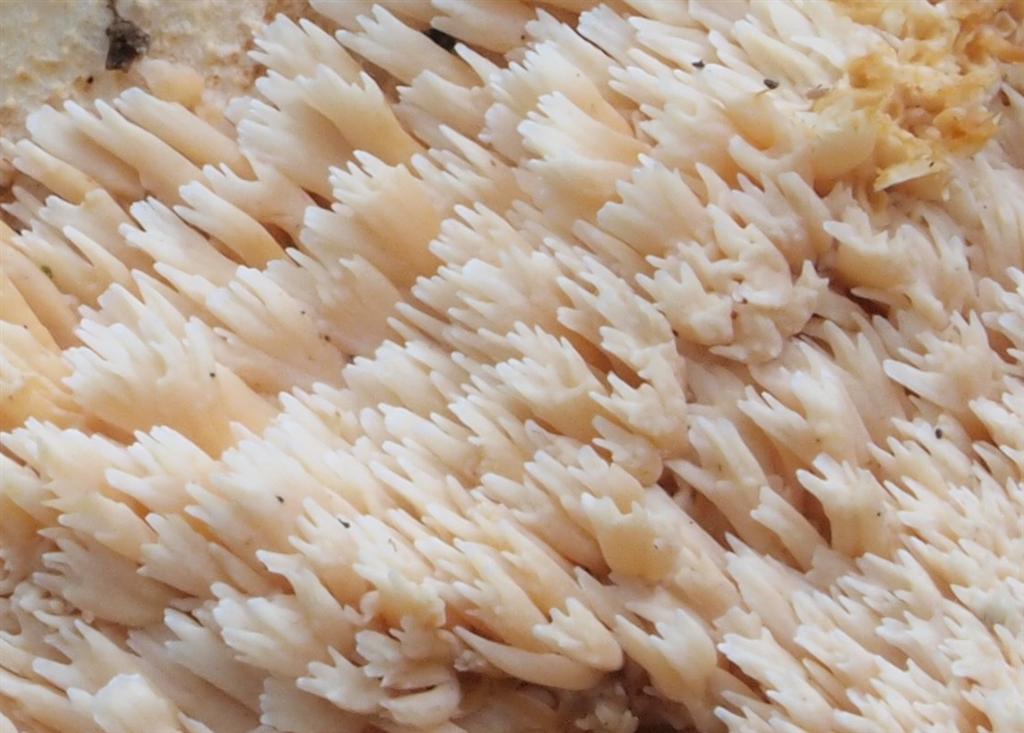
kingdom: Fungi
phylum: Basidiomycota
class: Agaricomycetes
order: Cantharellales
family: Hydnaceae
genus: Hydnum
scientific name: Hydnum umbilicatum
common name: navle-pigsvamp
